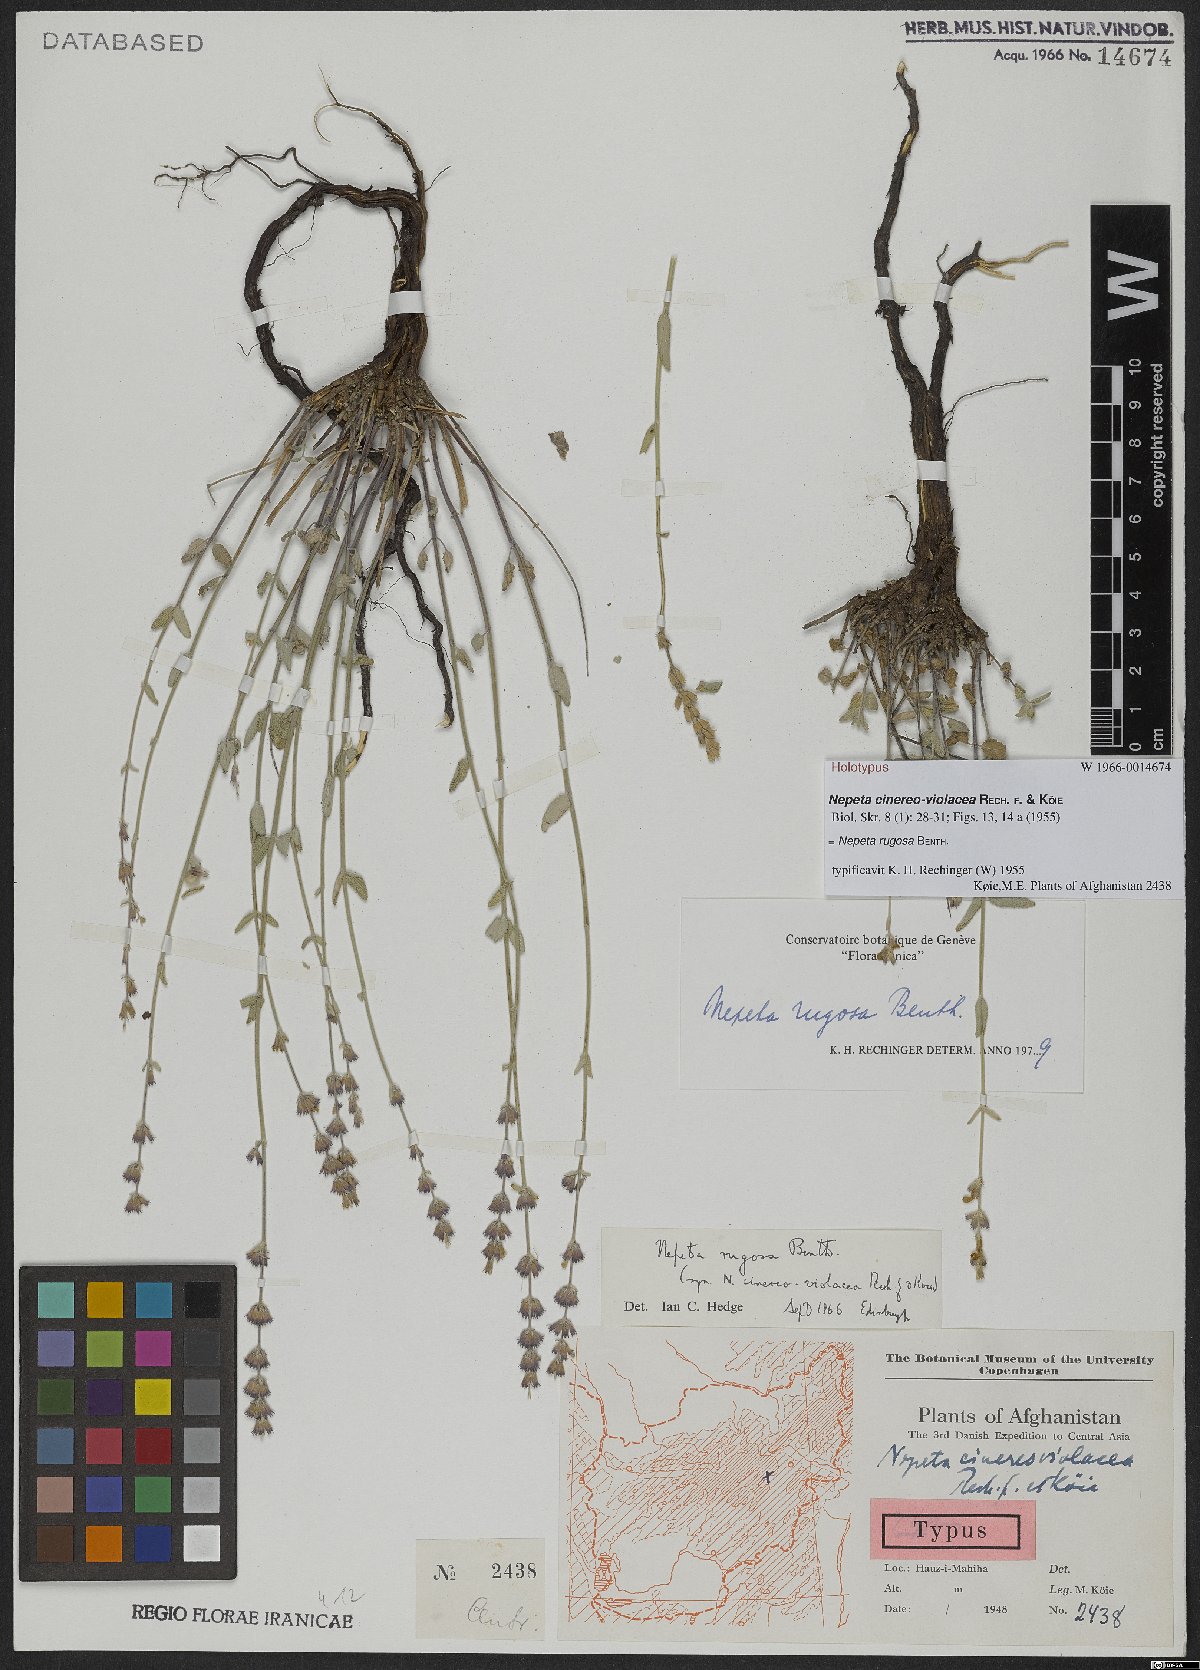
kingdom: Plantae
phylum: Tracheophyta
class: Magnoliopsida
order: Lamiales
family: Lamiaceae
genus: Nepeta
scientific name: Nepeta rugosa
